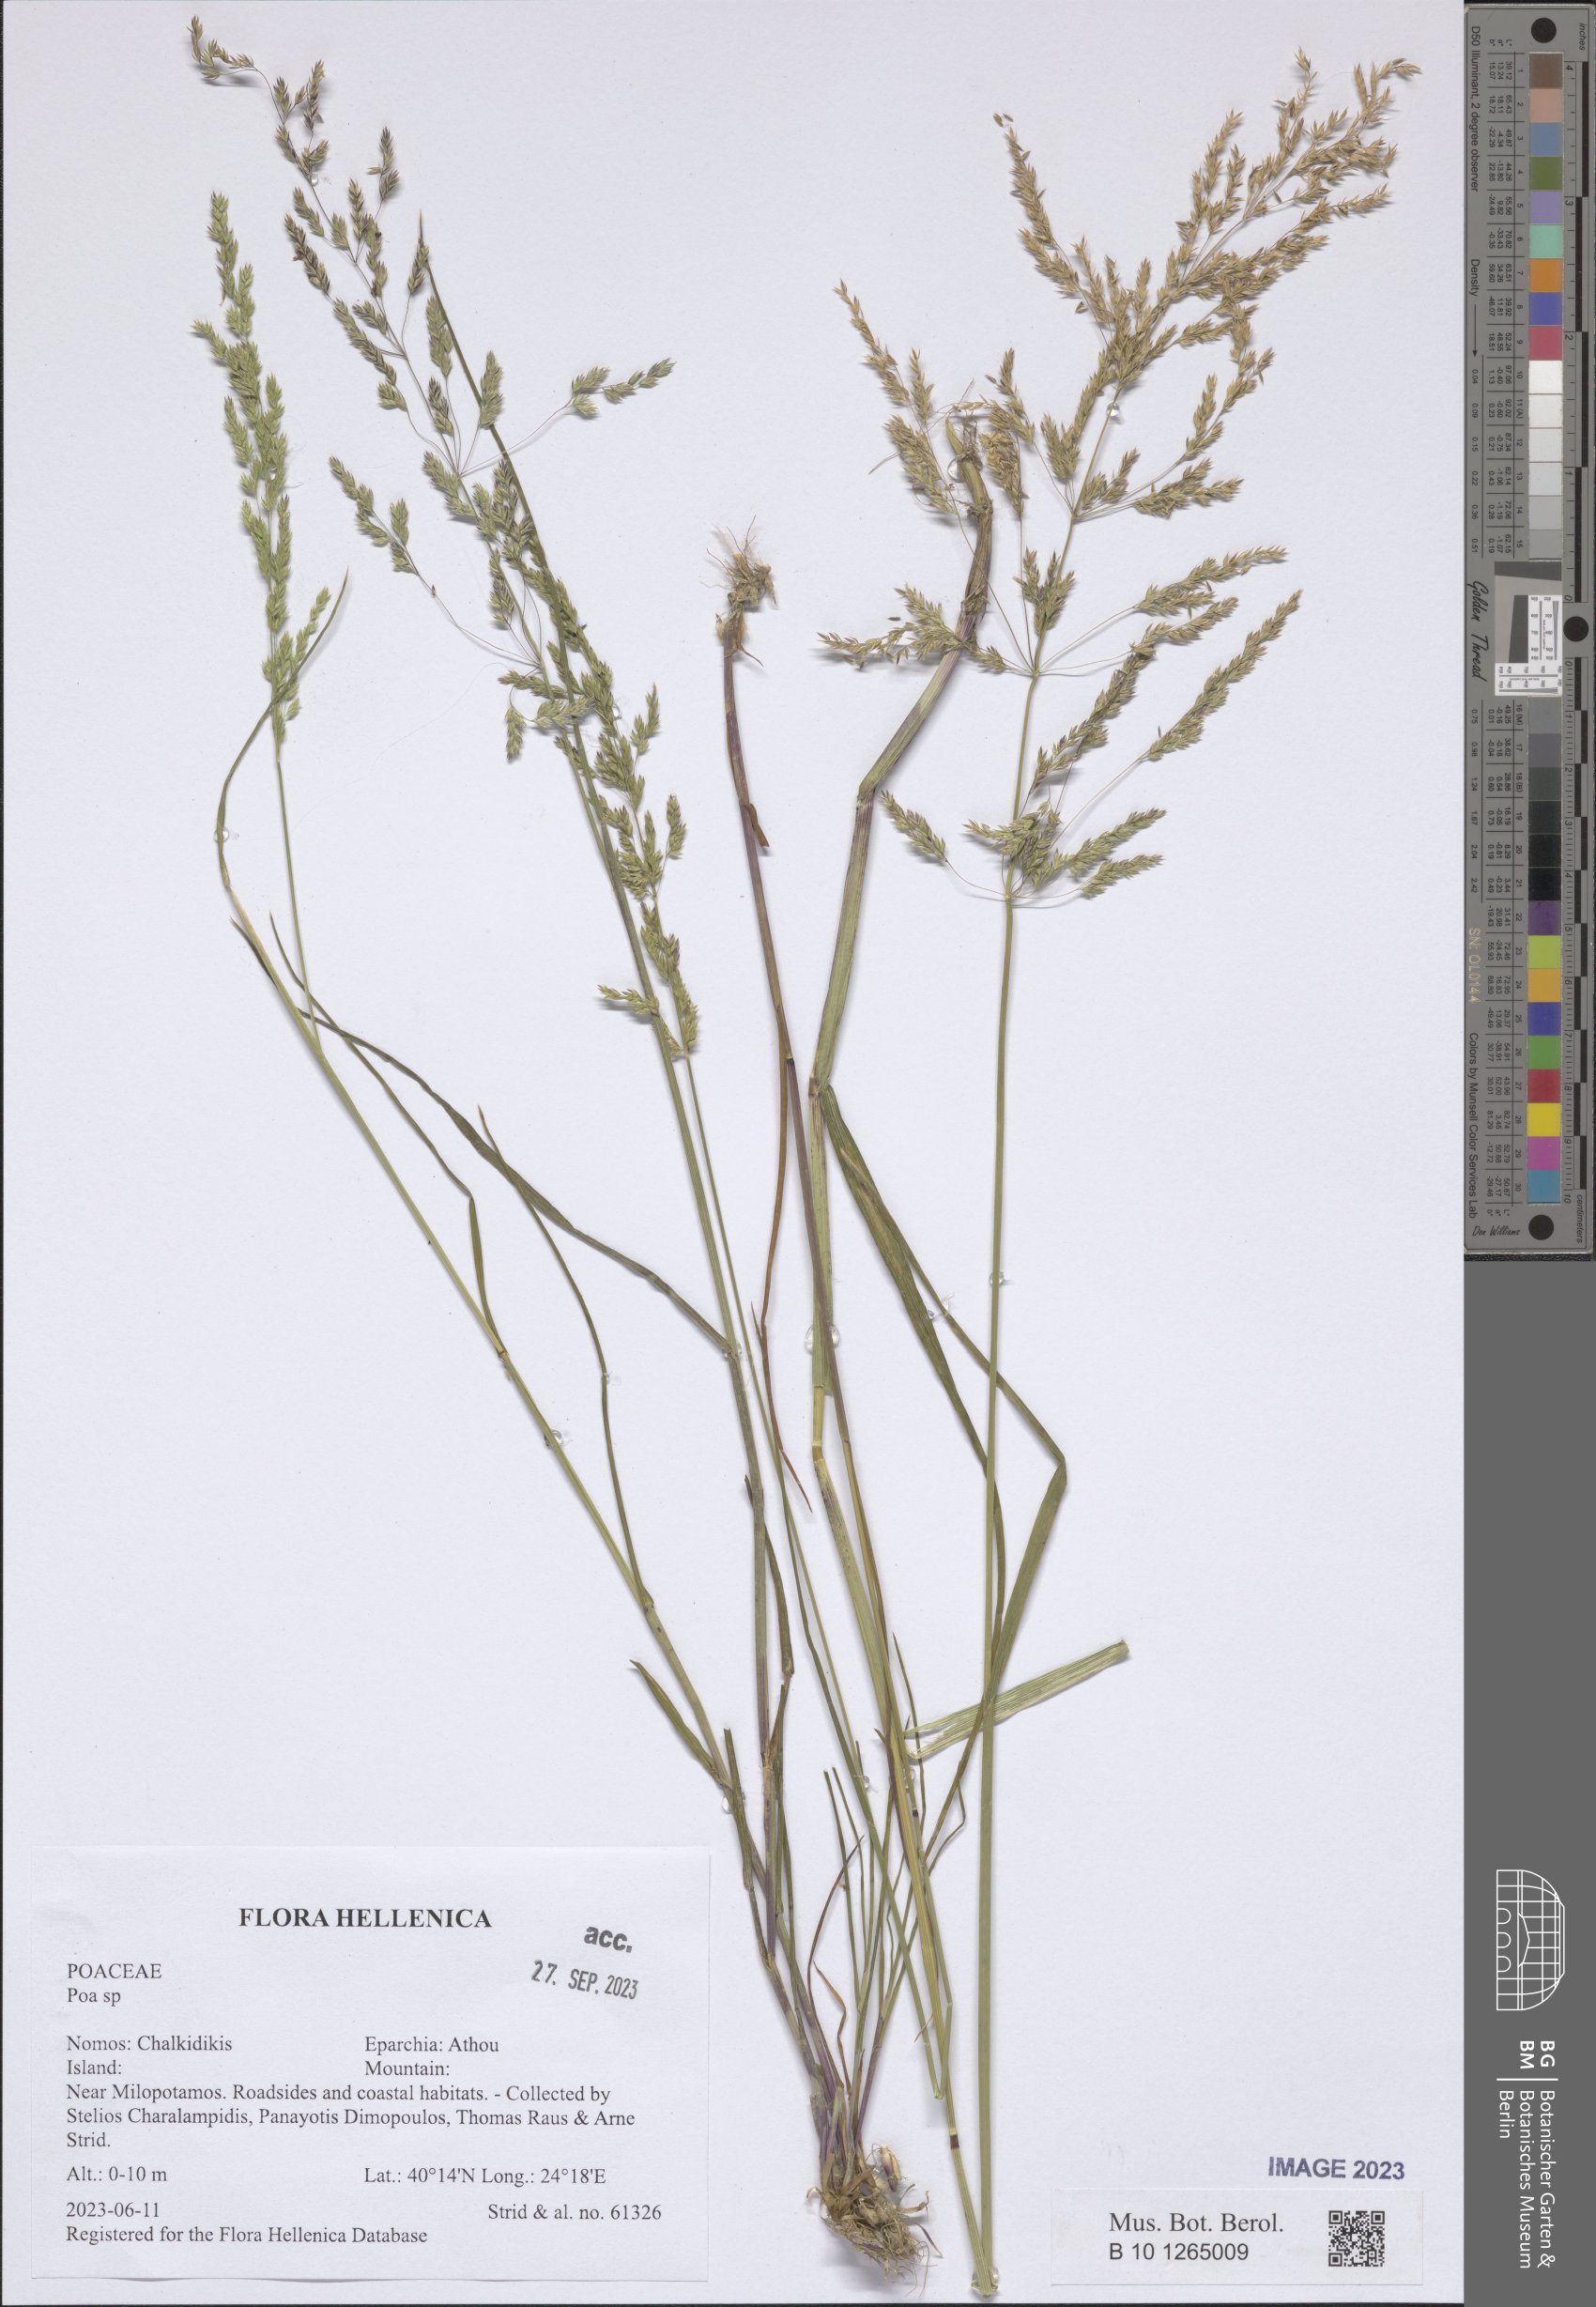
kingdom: Plantae
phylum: Tracheophyta
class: Liliopsida
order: Poales
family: Poaceae
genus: Poa
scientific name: Poa
